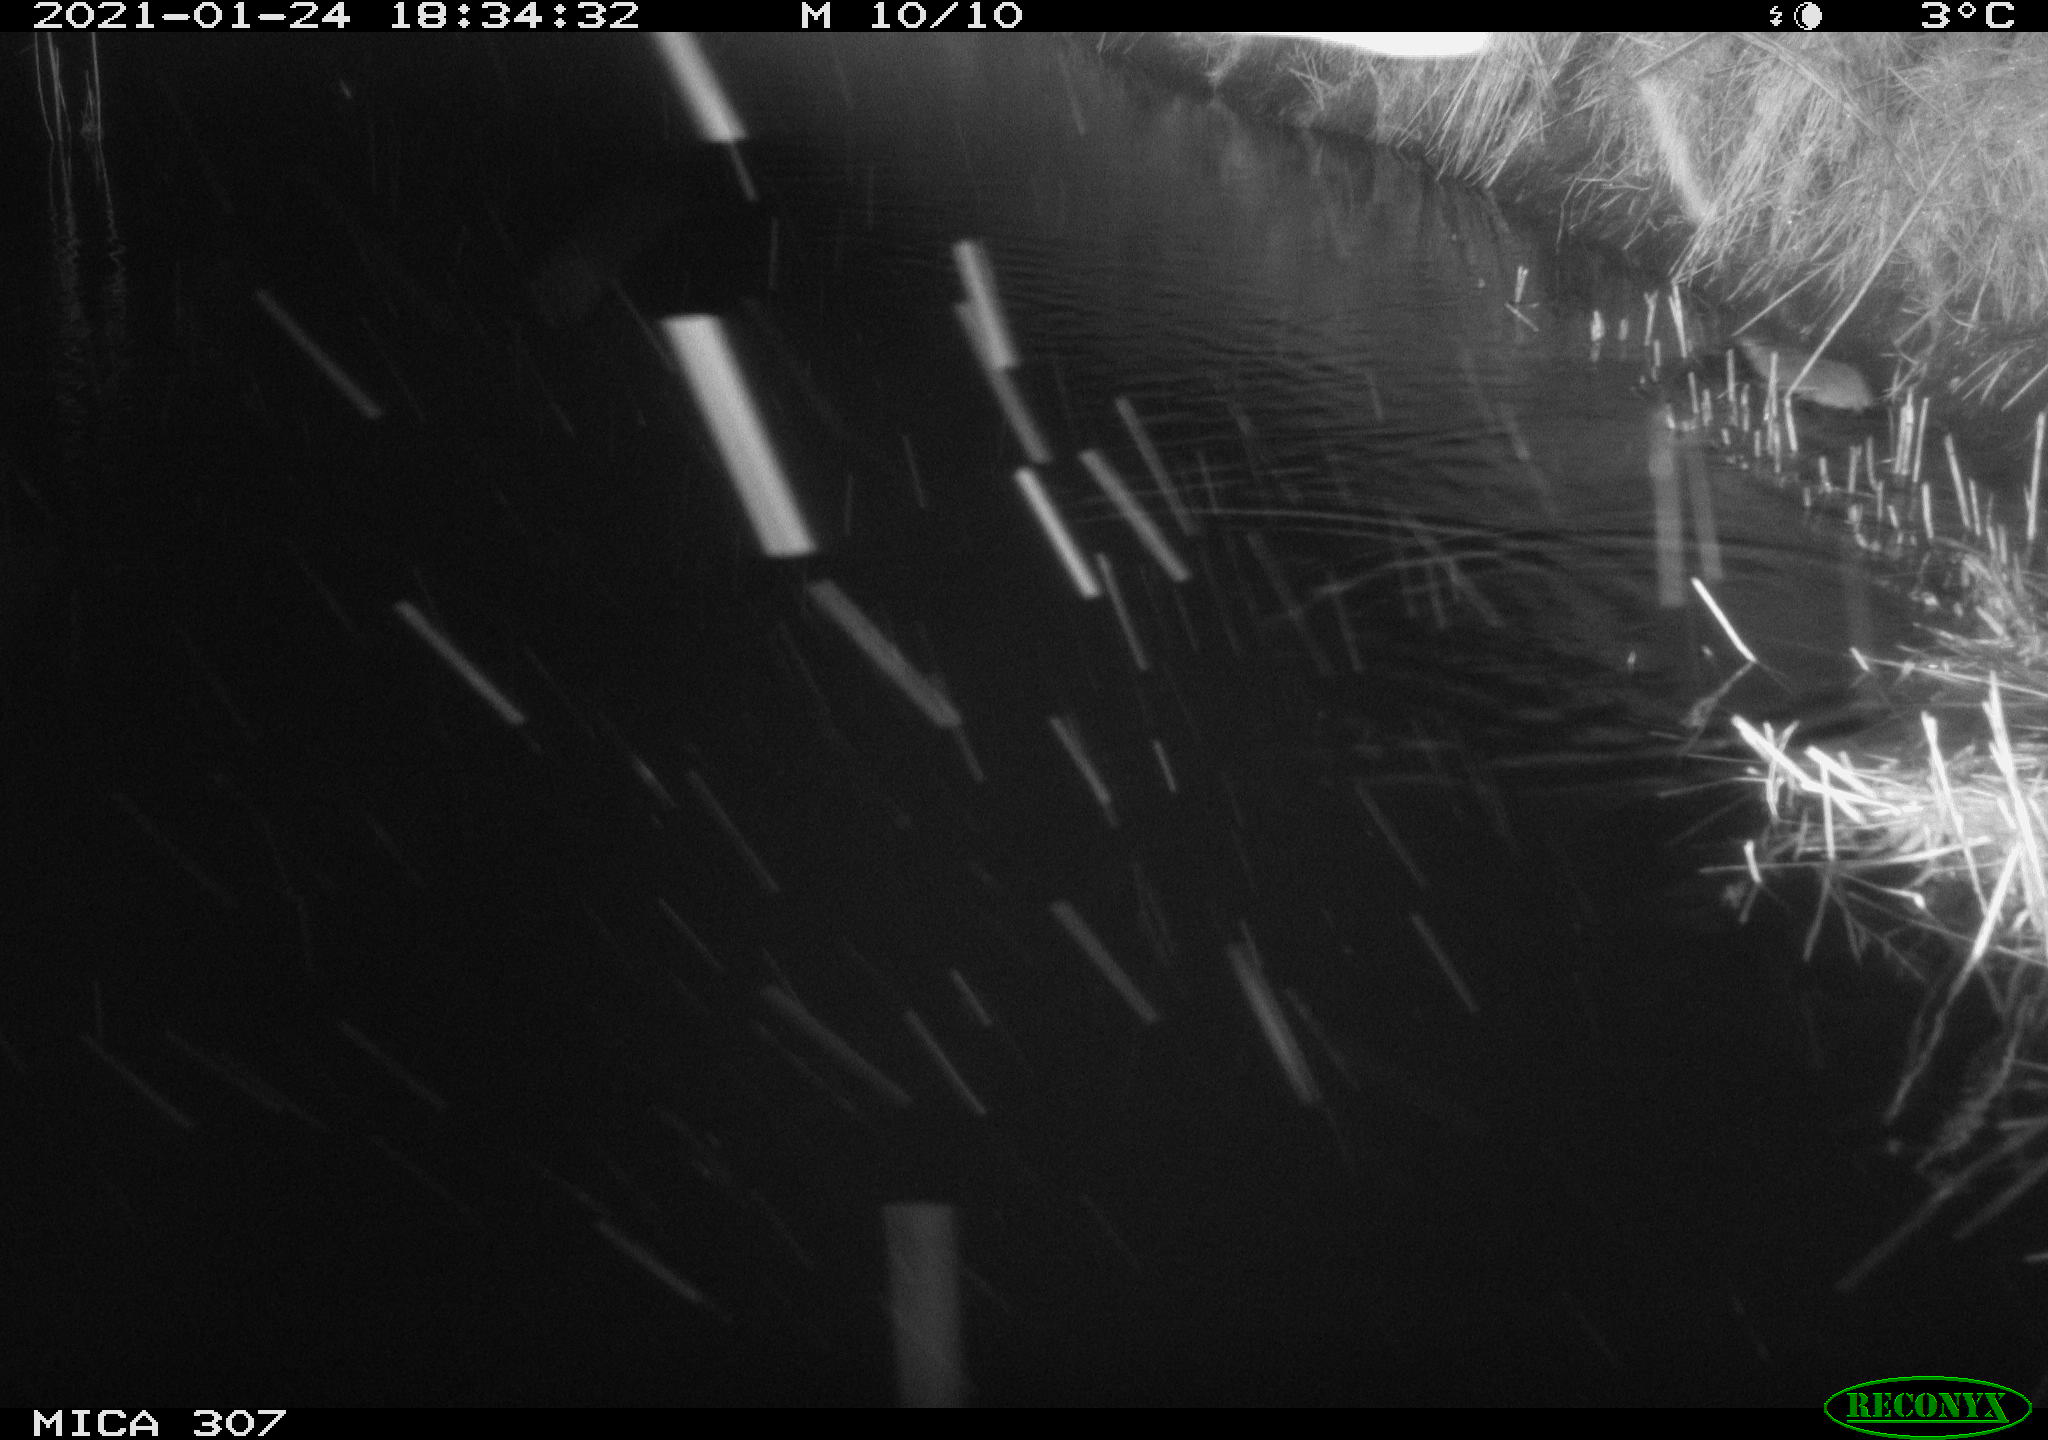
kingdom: Animalia
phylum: Chordata
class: Mammalia
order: Rodentia
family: Muridae
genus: Rattus
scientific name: Rattus norvegicus
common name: Brown rat
